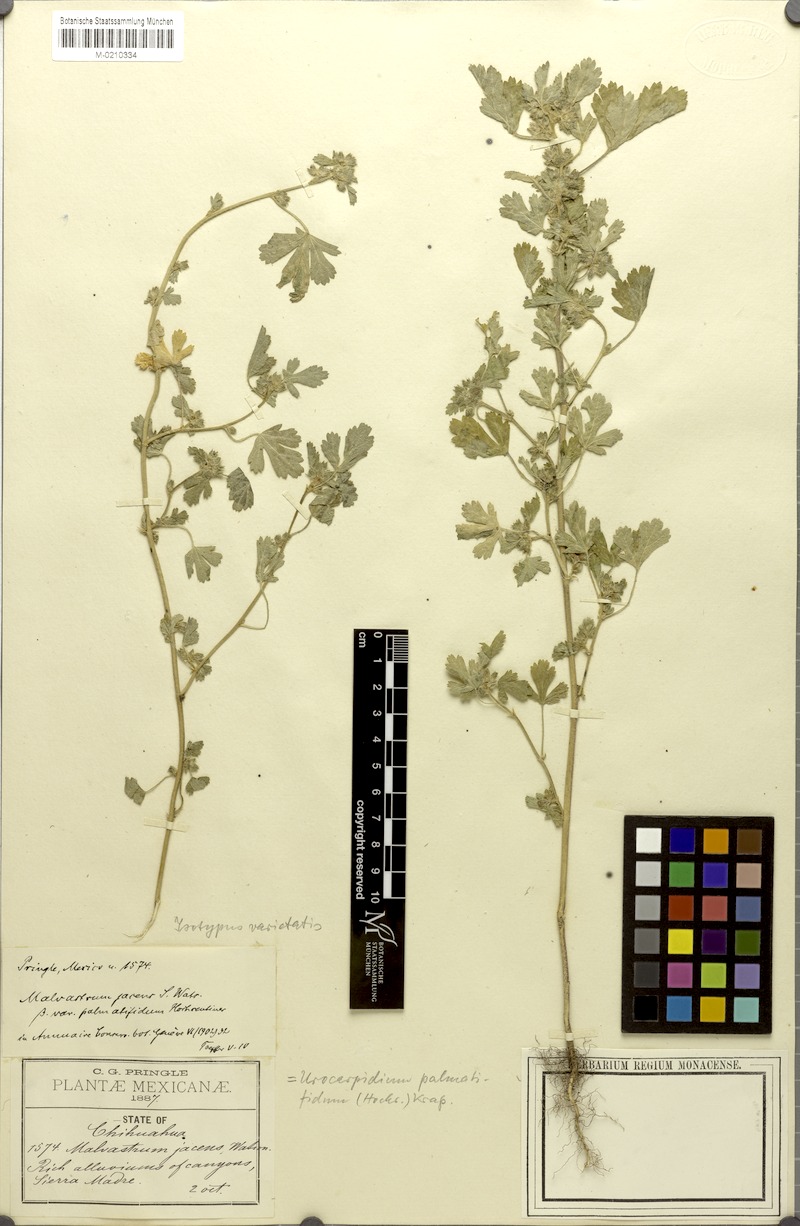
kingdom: Plantae
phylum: Tracheophyta
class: Magnoliopsida
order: Malvales
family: Malvaceae
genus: Fuertesimalva
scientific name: Fuertesimalva jacens
